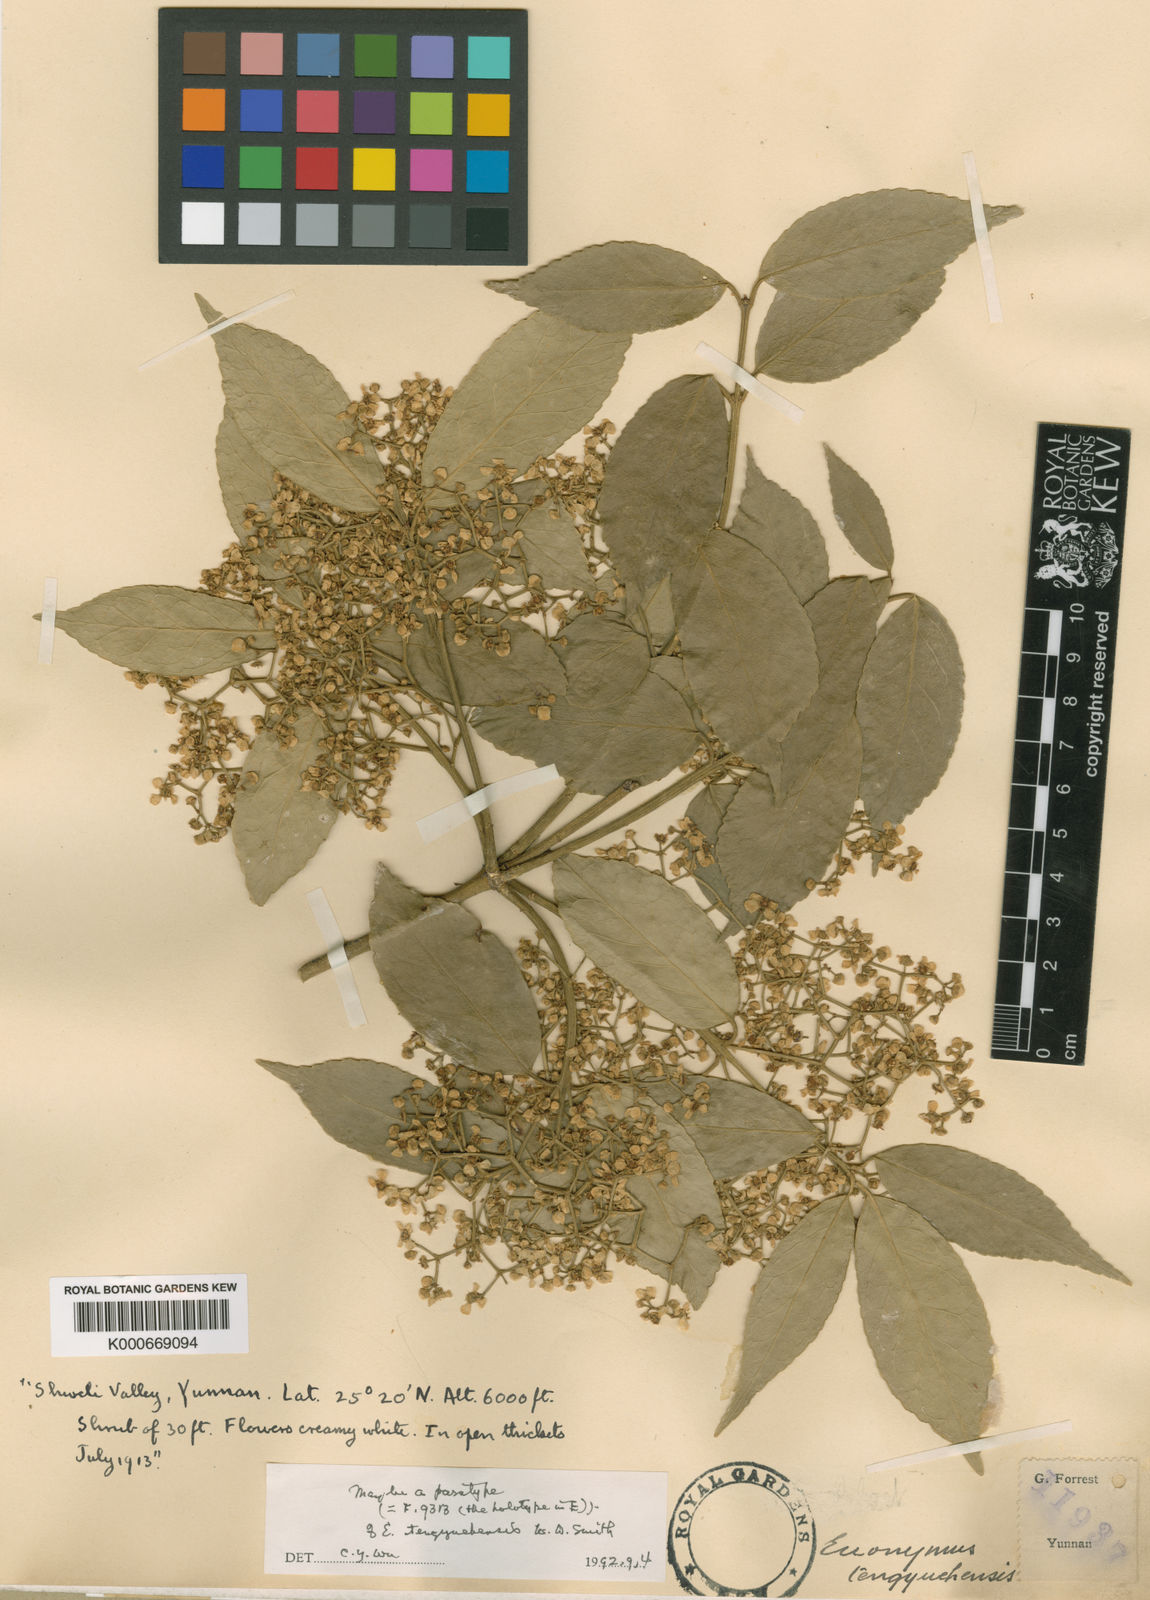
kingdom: Plantae
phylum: Tracheophyta
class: Magnoliopsida
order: Celastrales
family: Celastraceae
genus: Euonymus
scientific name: Euonymus acanthocarpus
